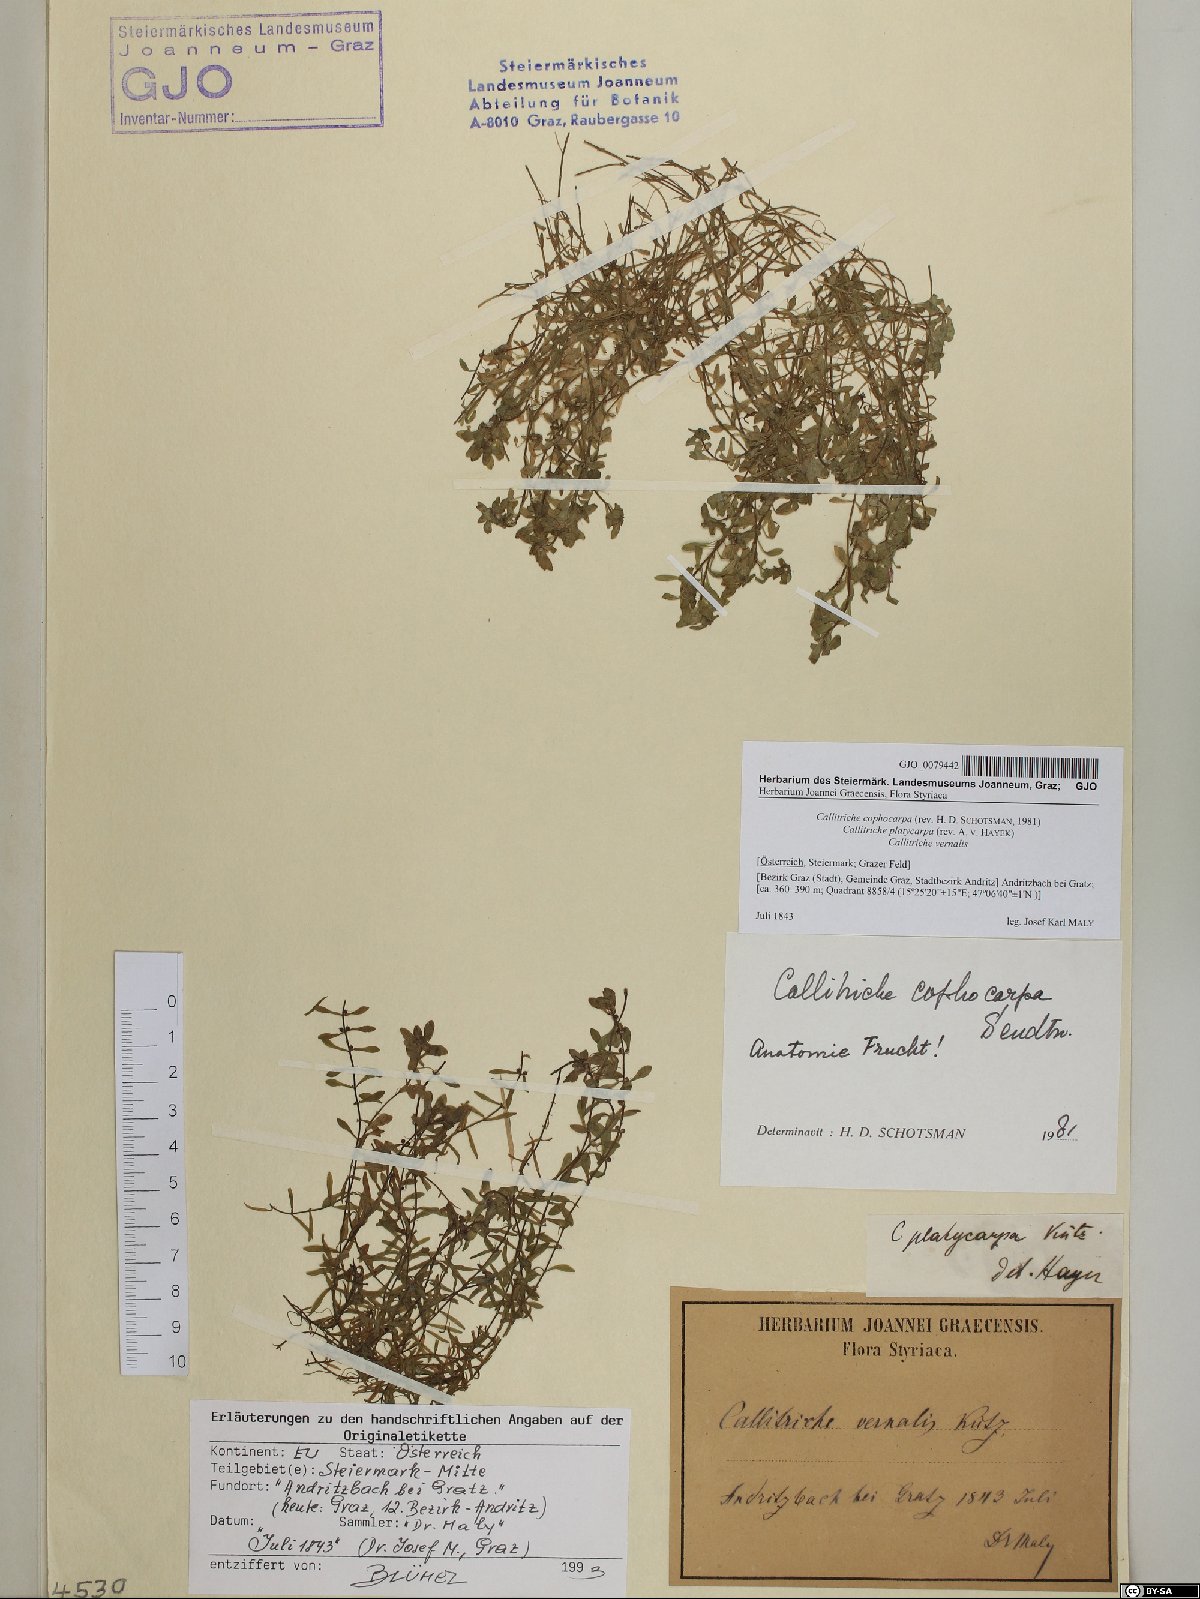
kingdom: Plantae
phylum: Tracheophyta
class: Magnoliopsida
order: Lamiales
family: Plantaginaceae
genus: Callitriche
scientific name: Callitriche cophocarpa
